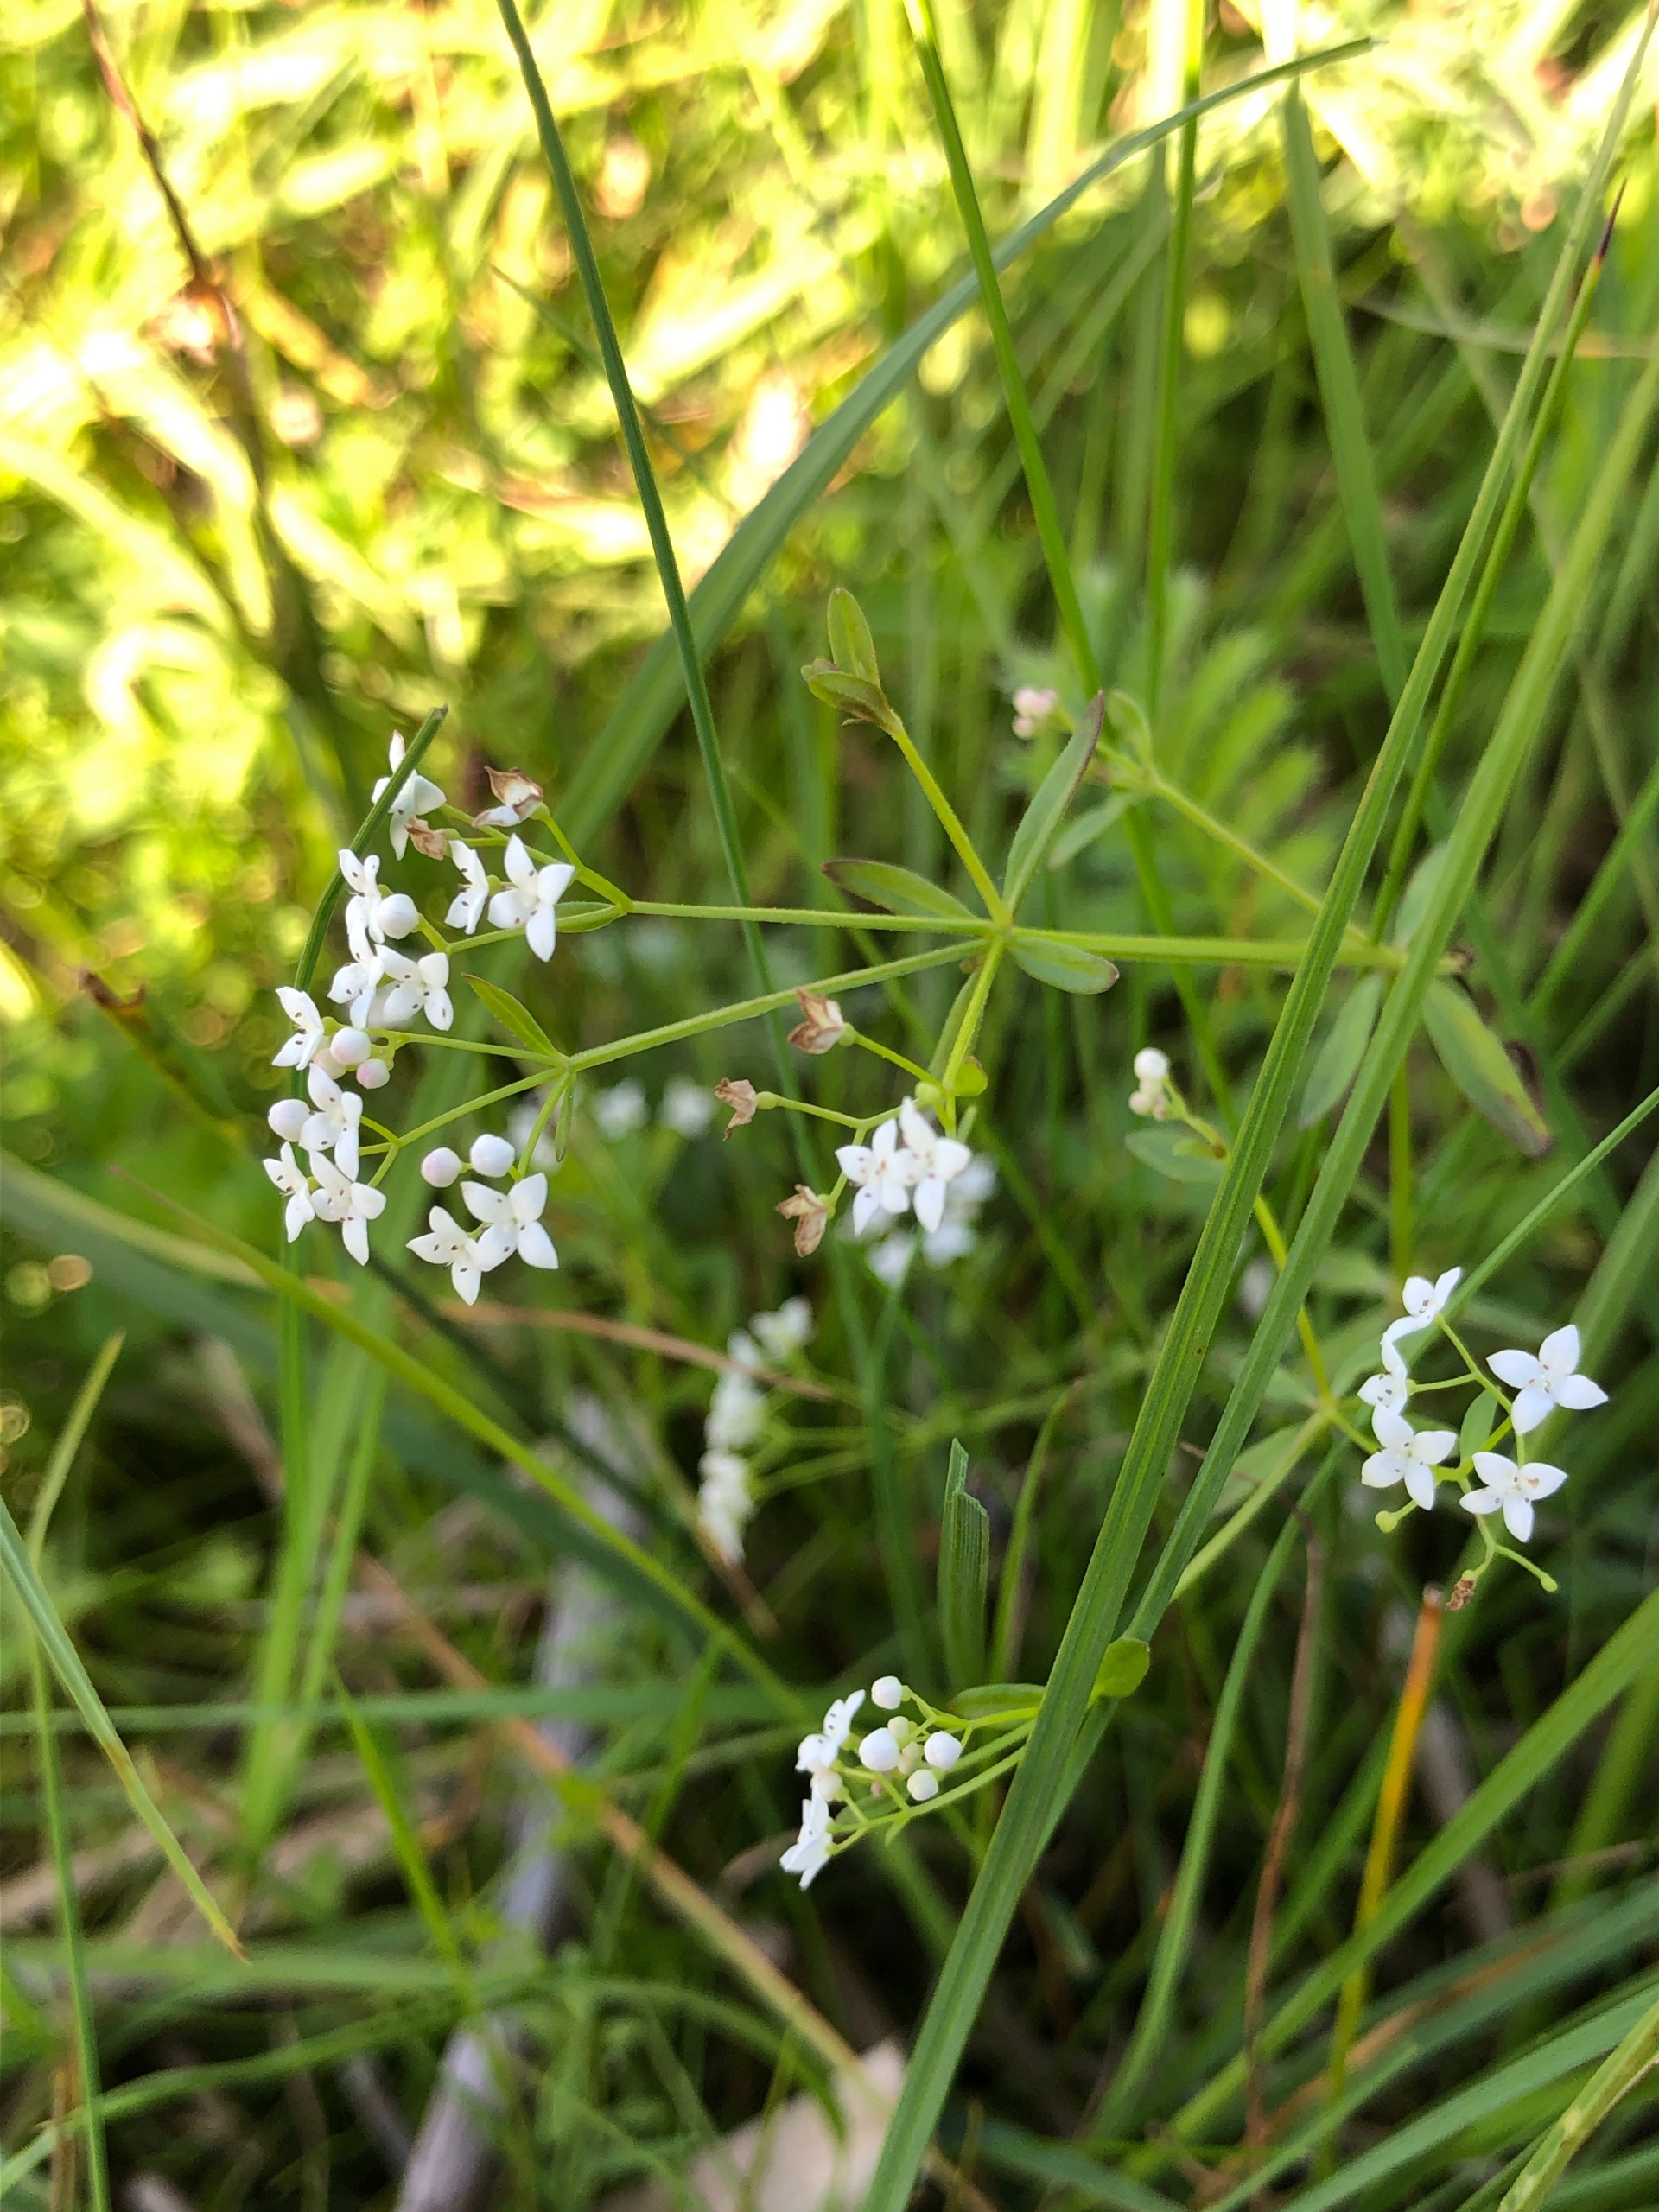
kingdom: Plantae
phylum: Tracheophyta
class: Magnoliopsida
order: Gentianales
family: Rubiaceae
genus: Galium
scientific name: Galium palustre
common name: Kær-snerre
